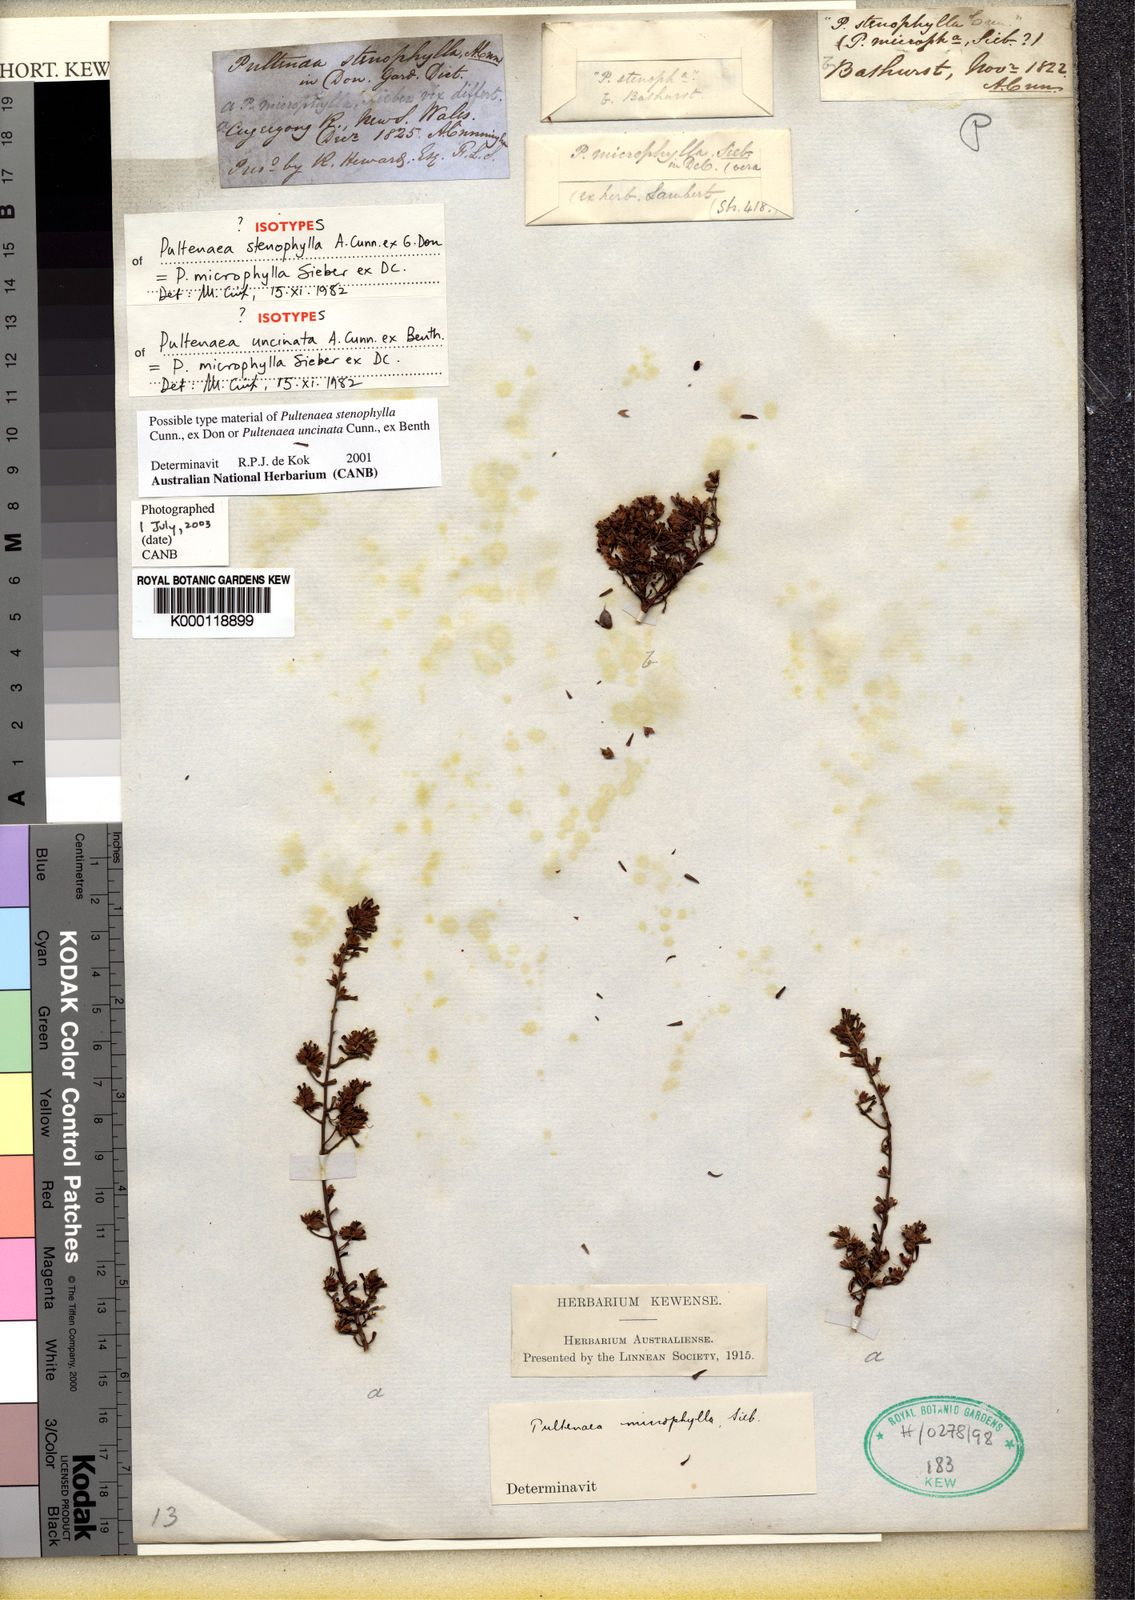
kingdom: Plantae
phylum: Tracheophyta
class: Magnoliopsida
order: Fabales
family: Fabaceae
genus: Pultenaea
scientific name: Pultenaea microphylla
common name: Spreading bush-pea
